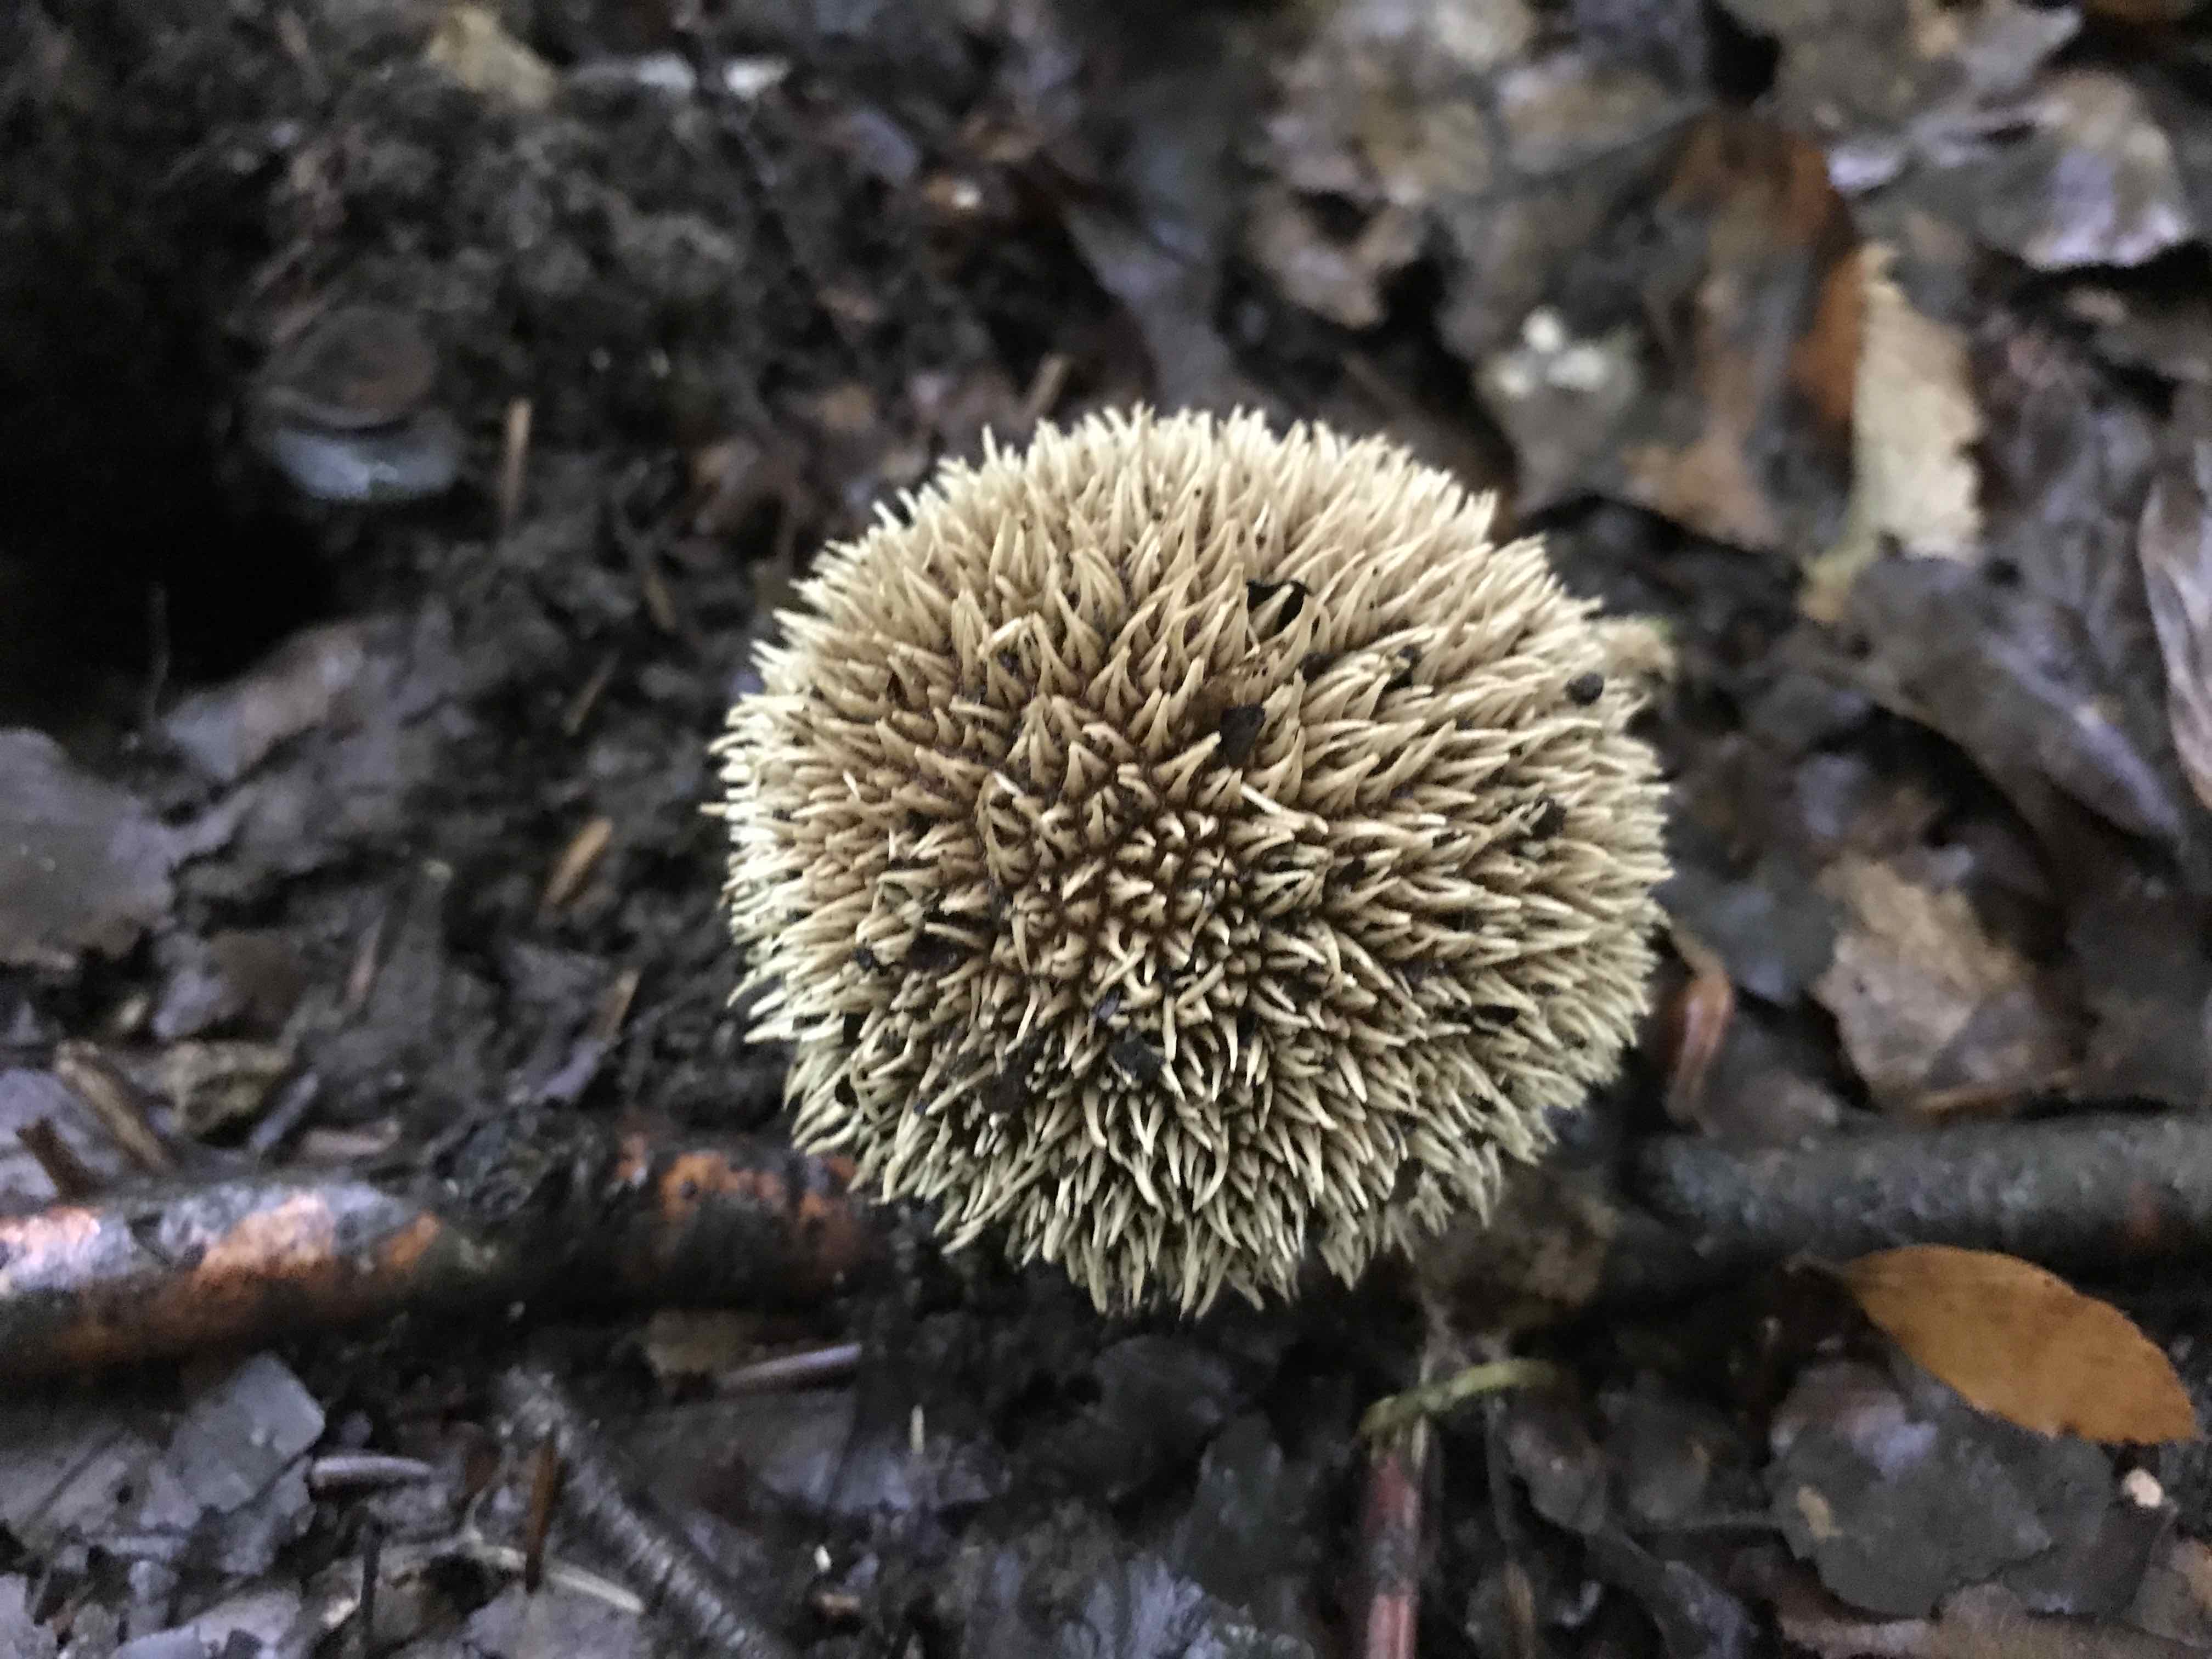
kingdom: Fungi
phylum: Basidiomycota
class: Agaricomycetes
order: Agaricales
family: Lycoperdaceae
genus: Lycoperdon
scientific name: Lycoperdon echinatum
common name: pindsvine-støvbold
